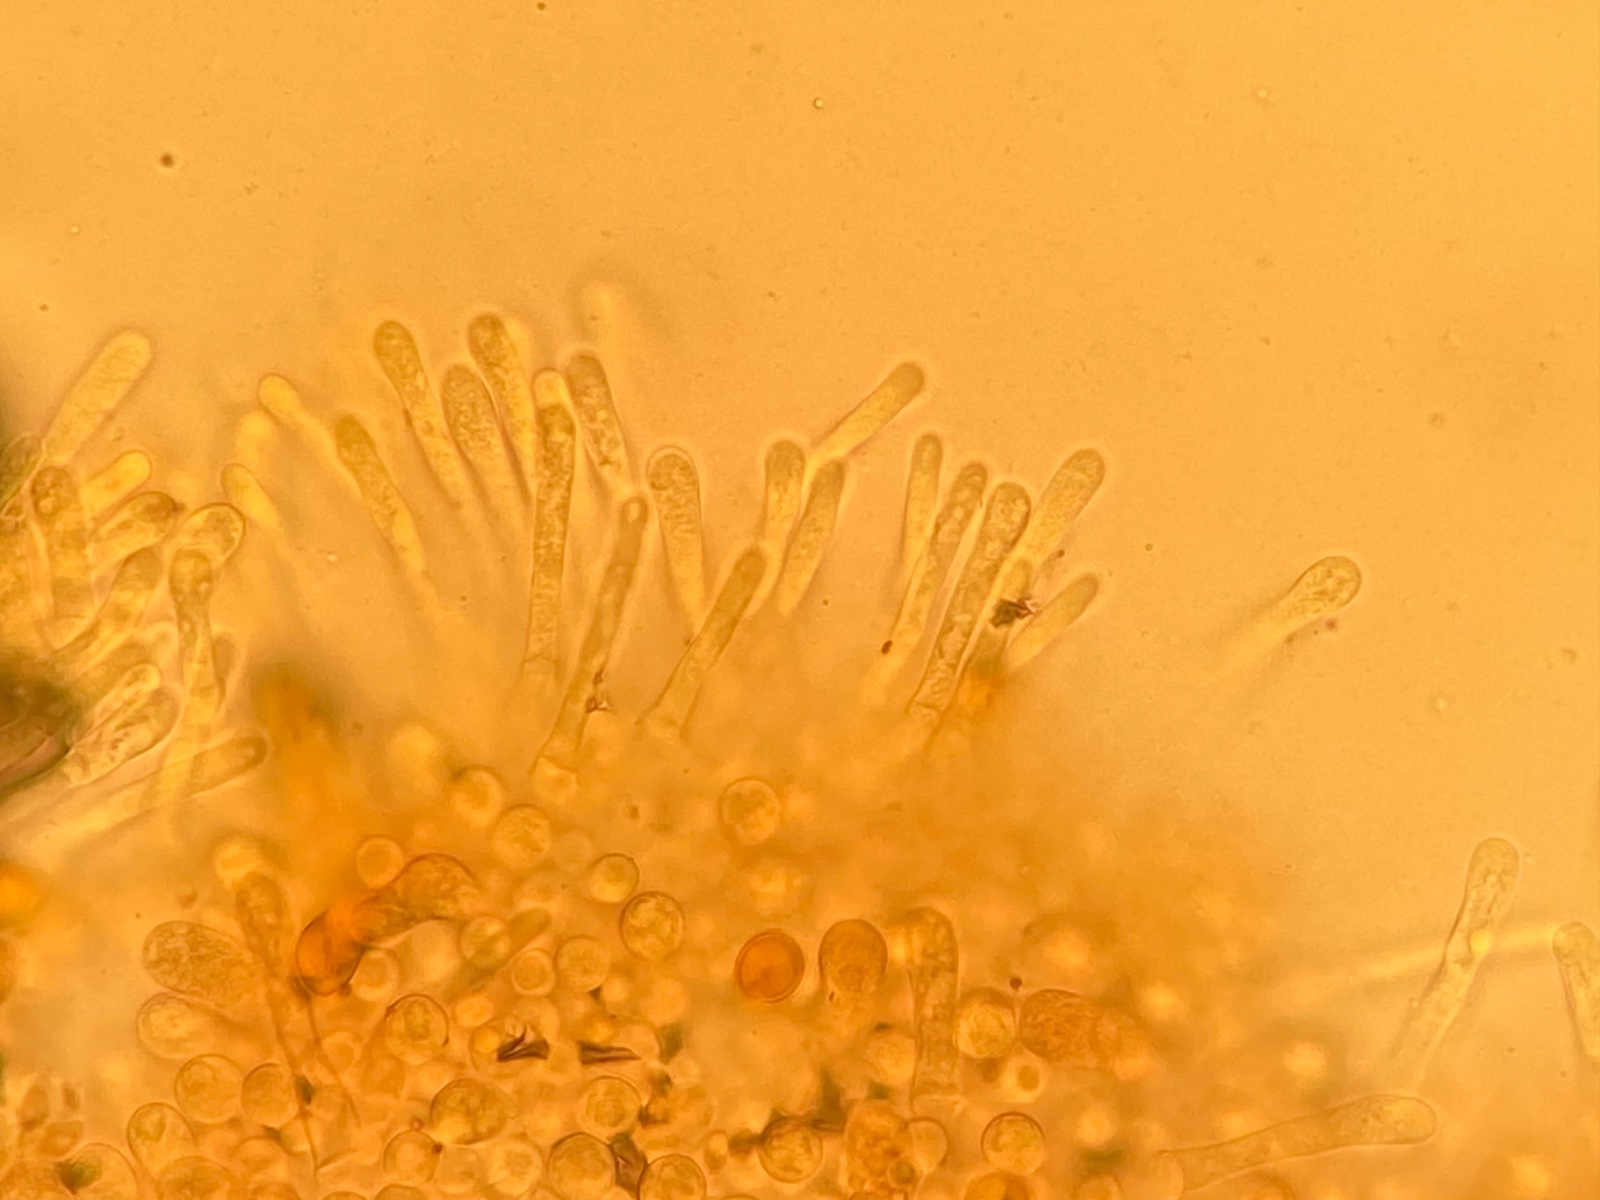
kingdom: Fungi
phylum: Basidiomycota
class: Agaricomycetes
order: Agaricales
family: Hymenogastraceae
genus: Hebeloma
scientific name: Hebeloma aestivale
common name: sommer-tåreblad
